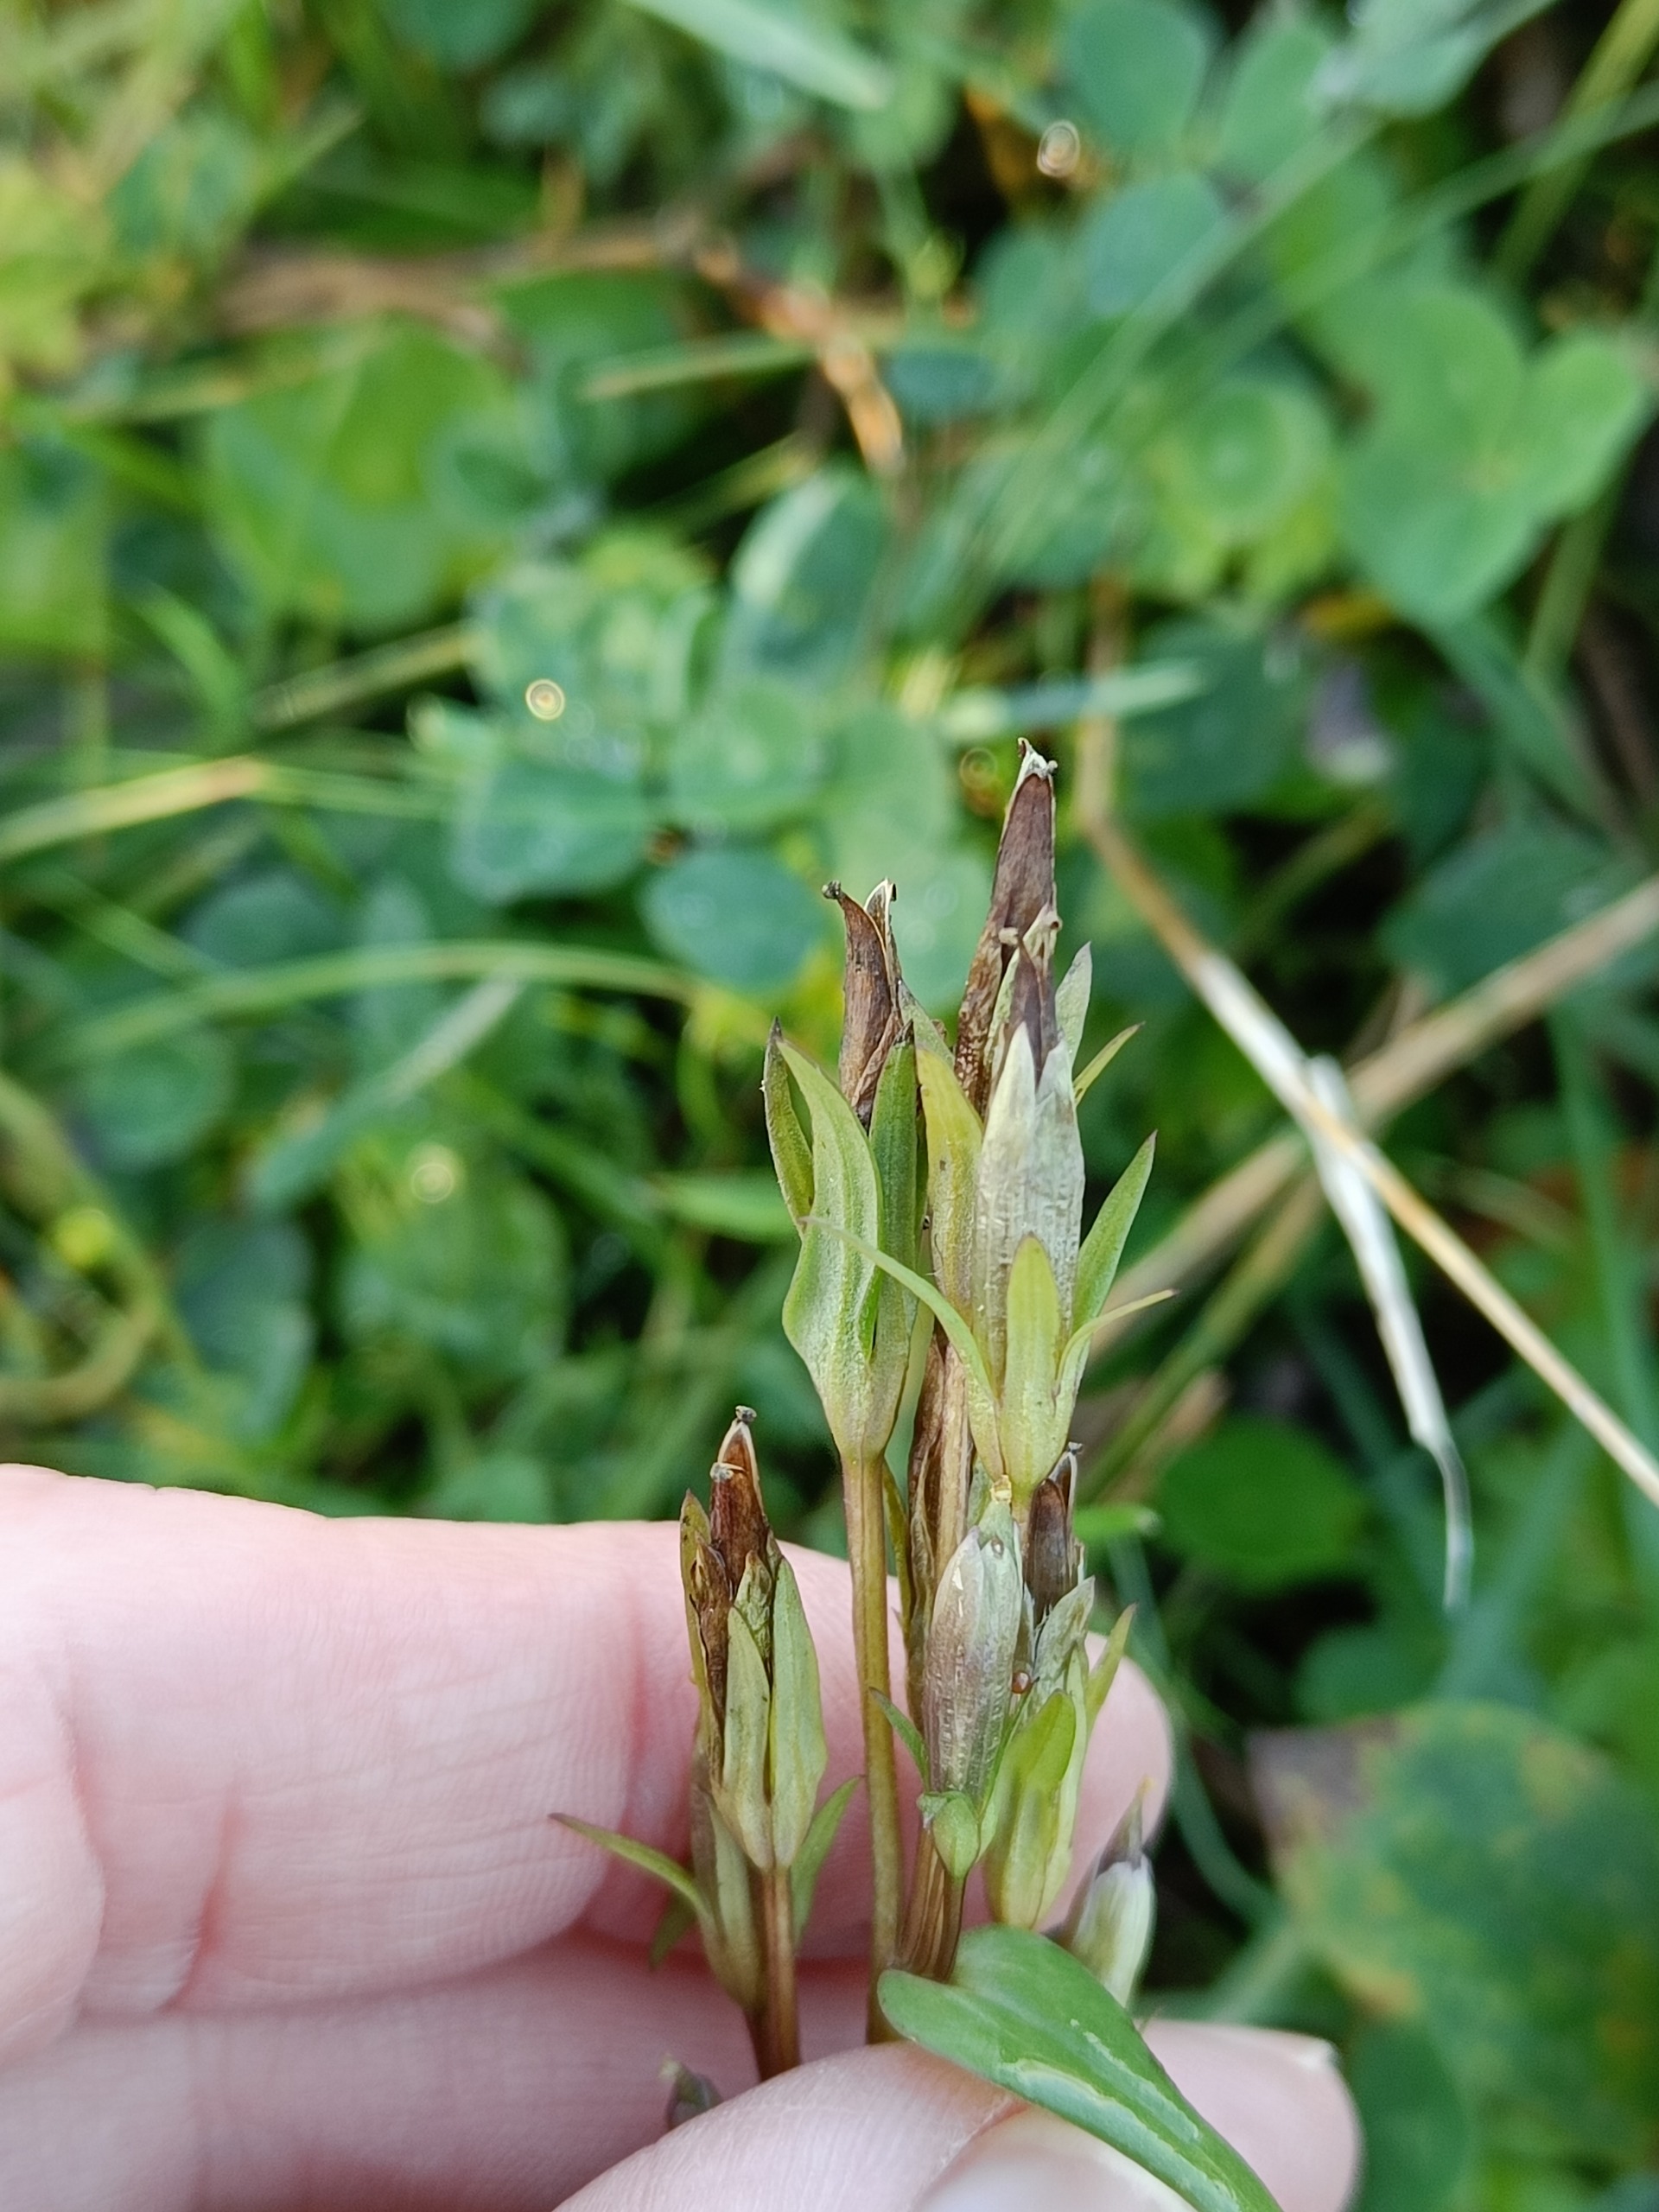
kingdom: Plantae
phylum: Tracheophyta
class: Magnoliopsida
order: Gentianales
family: Gentianaceae
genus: Gentianella
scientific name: Gentianella uliginosa
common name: Eng-ensian
